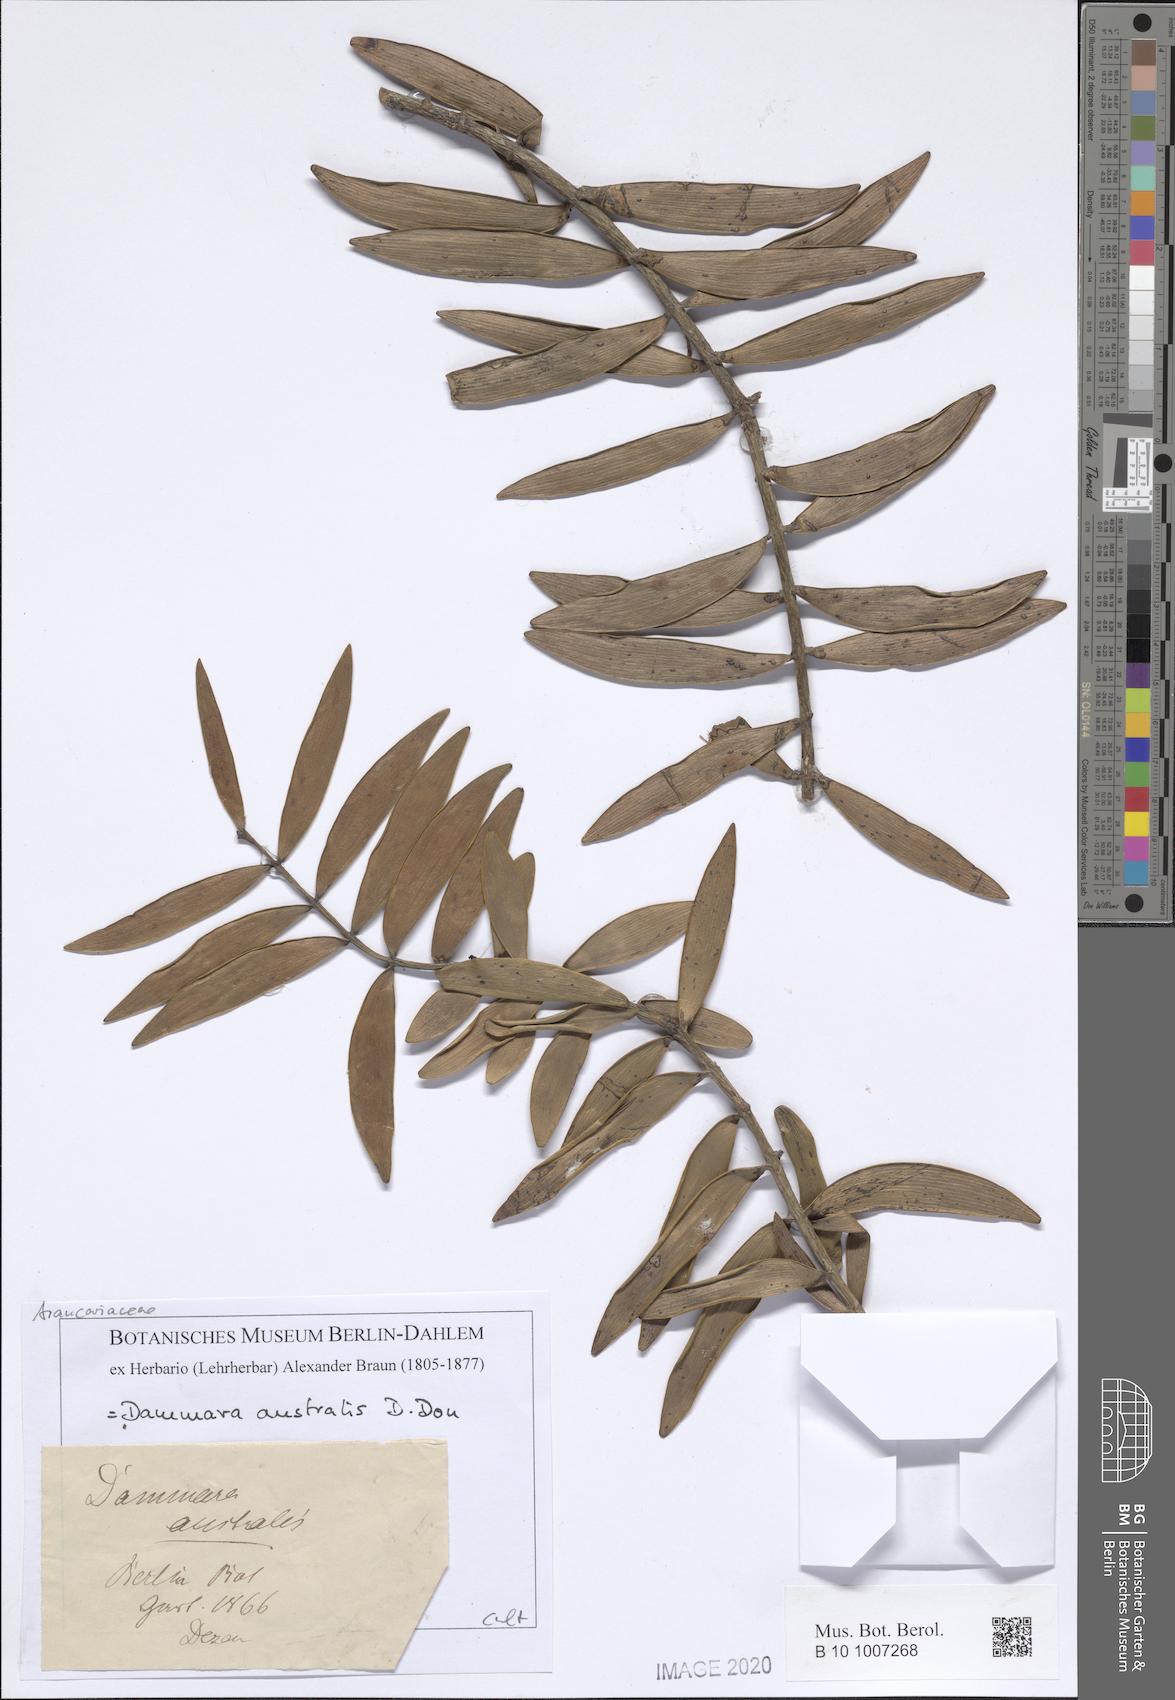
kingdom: Plantae
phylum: Tracheophyta
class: Pinopsida
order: Pinales
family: Araucariaceae
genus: Agathis
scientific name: Agathis australis
